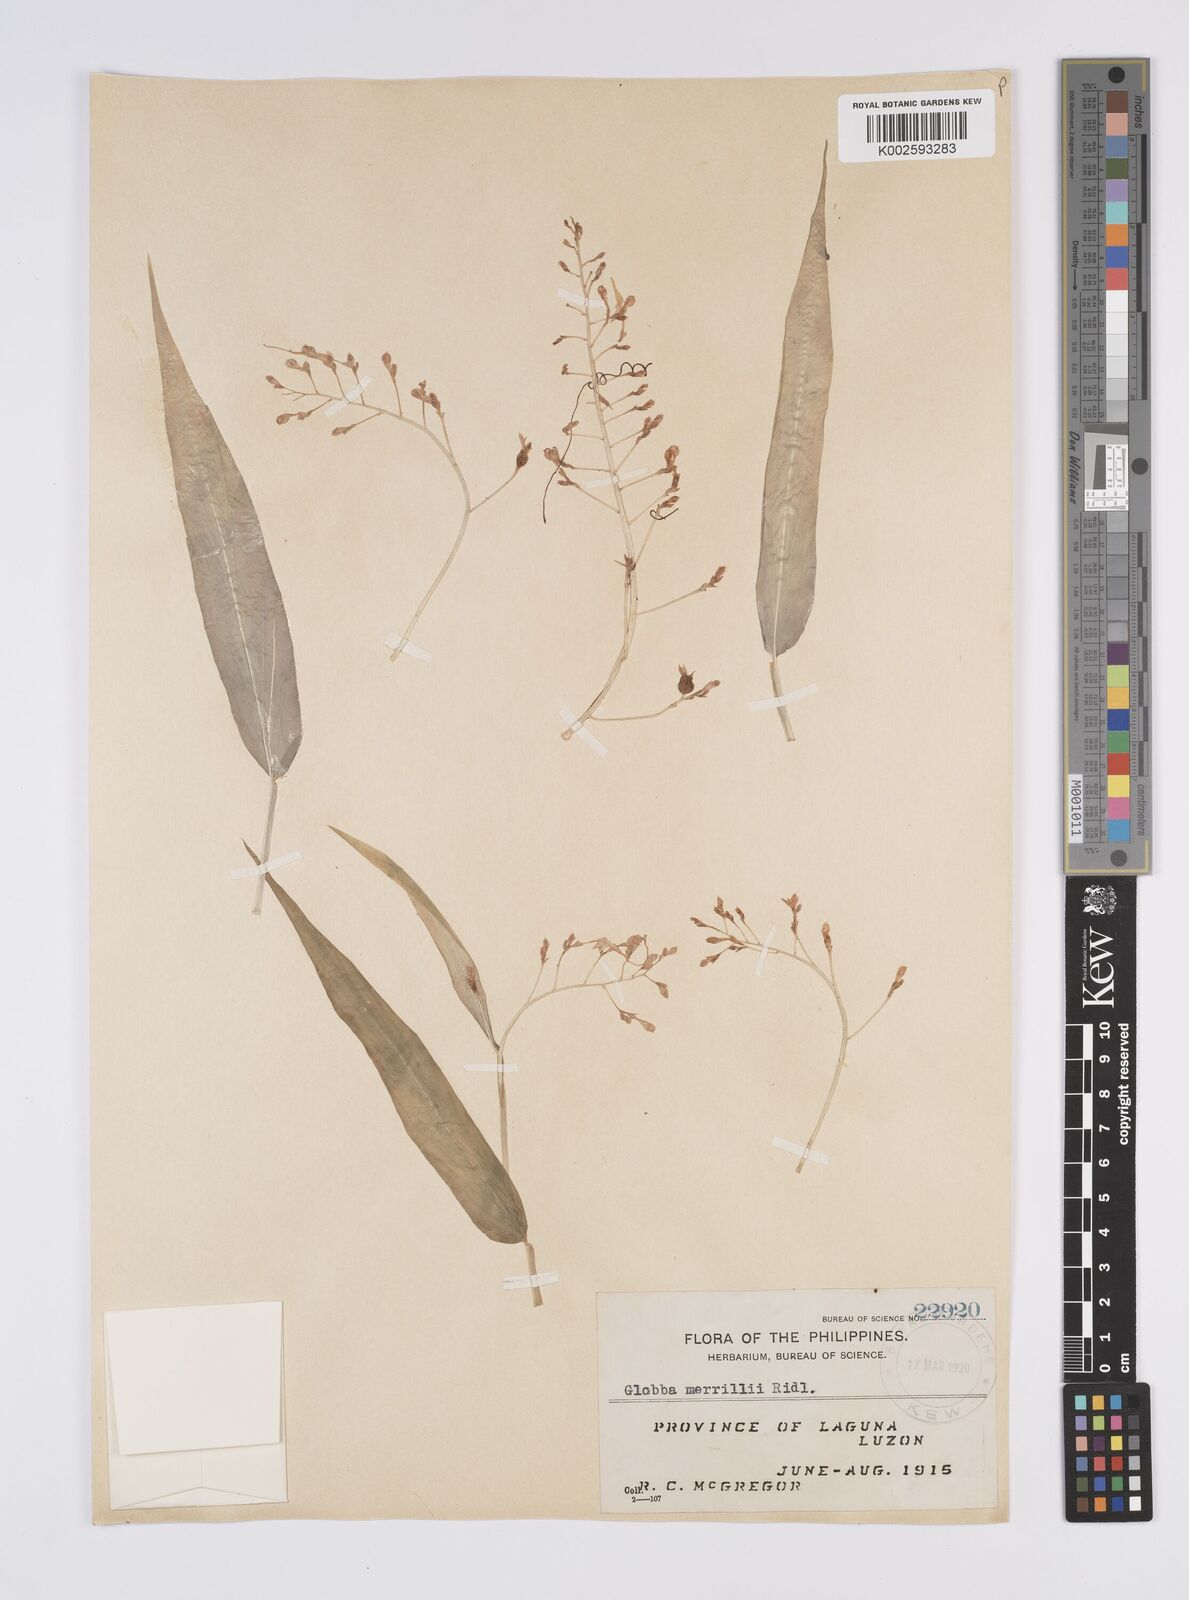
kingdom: Plantae
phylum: Tracheophyta
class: Liliopsida
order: Zingiberales
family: Zingiberaceae
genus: Globba
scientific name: Globba campsophylla
